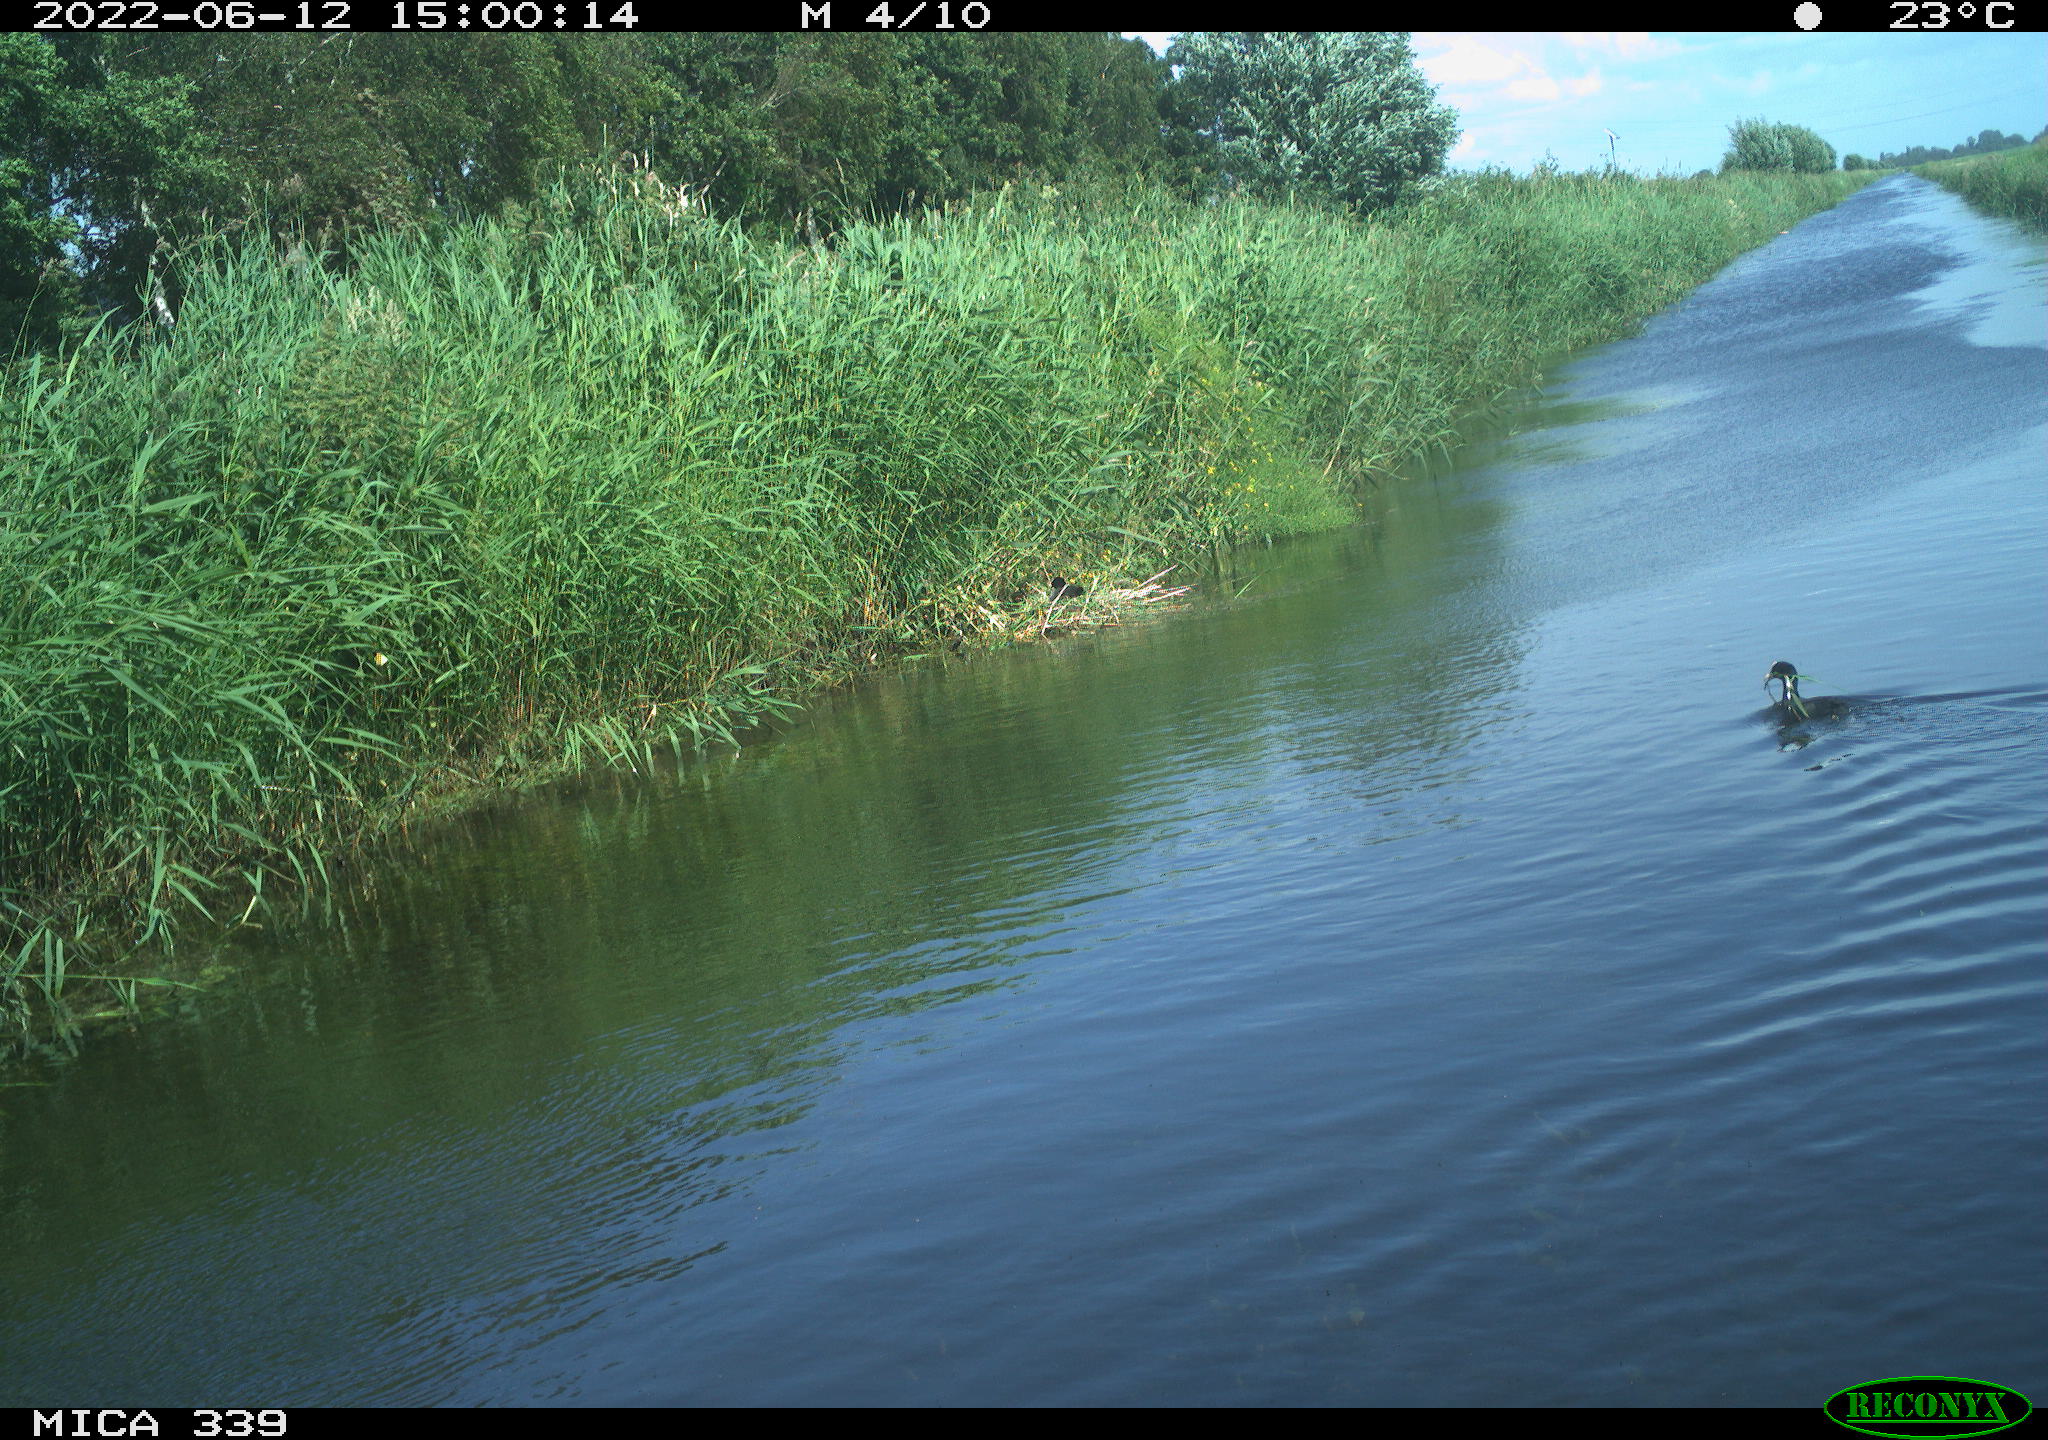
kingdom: Animalia
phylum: Chordata
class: Aves
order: Gruiformes
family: Rallidae
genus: Fulica
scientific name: Fulica atra
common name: Eurasian coot
